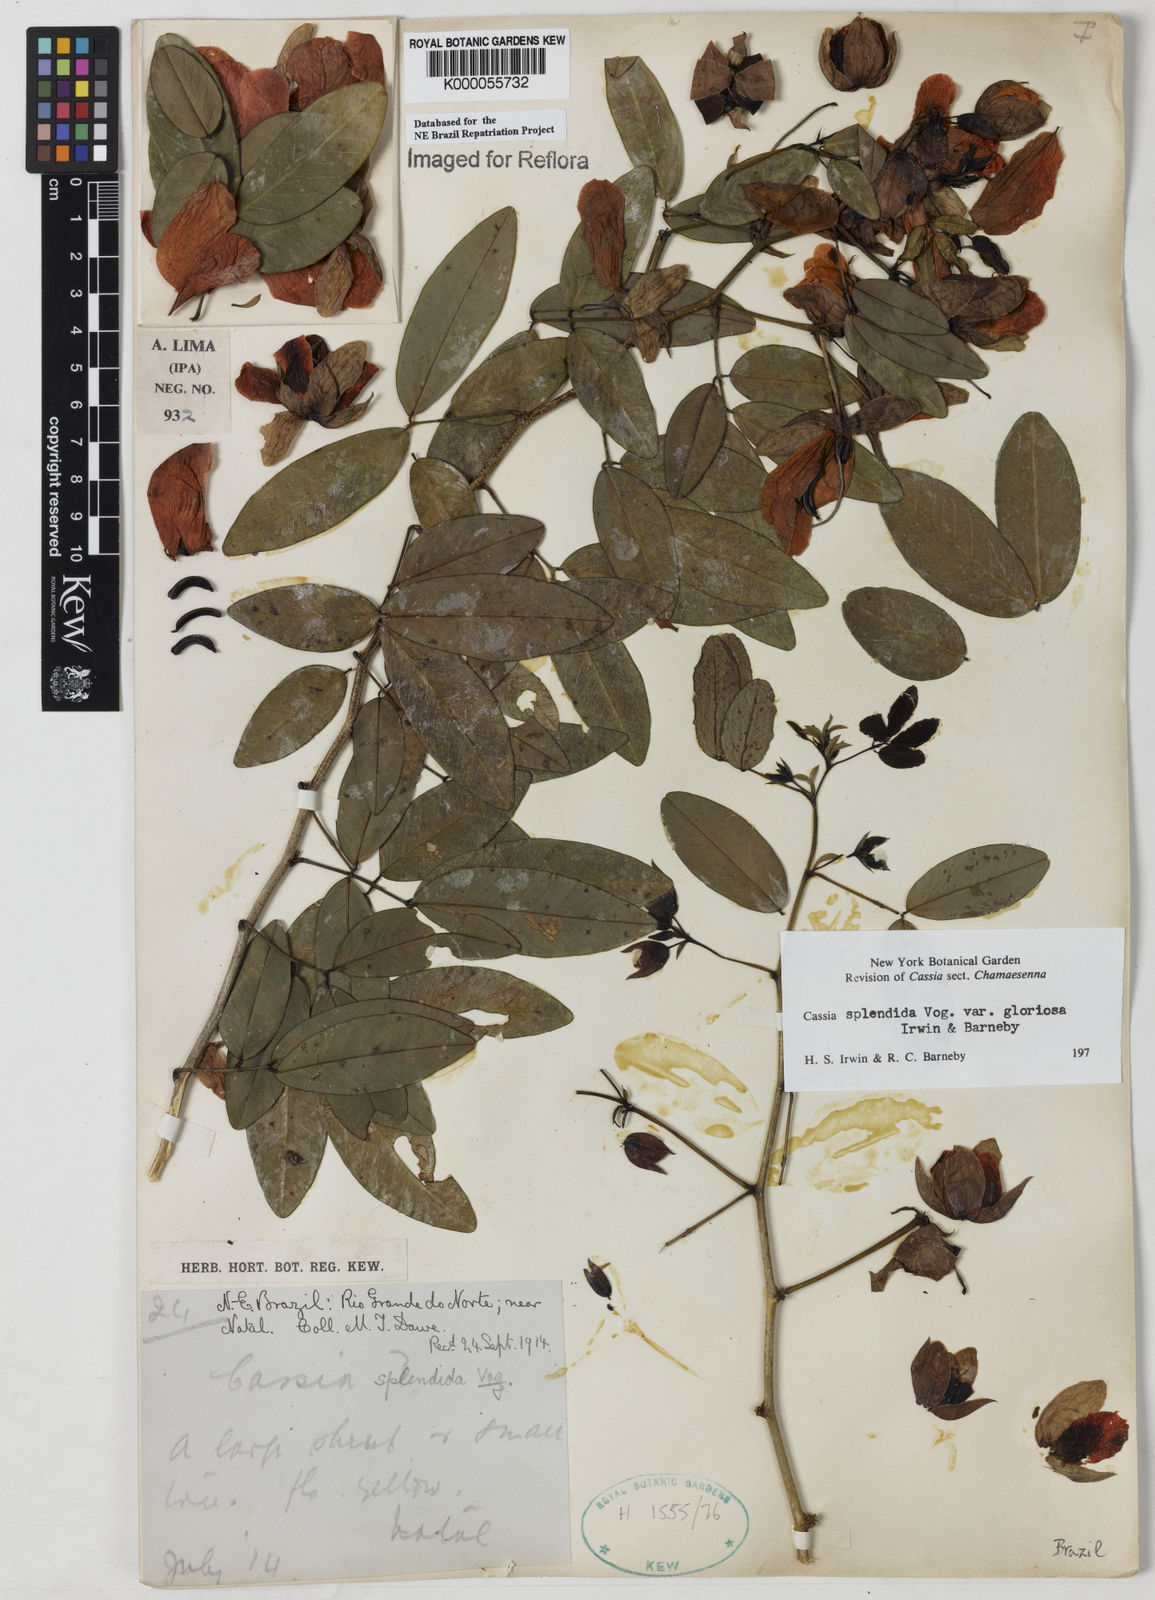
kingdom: Plantae
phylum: Tracheophyta
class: Magnoliopsida
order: Fabales
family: Fabaceae
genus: Senna
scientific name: Senna splendida
